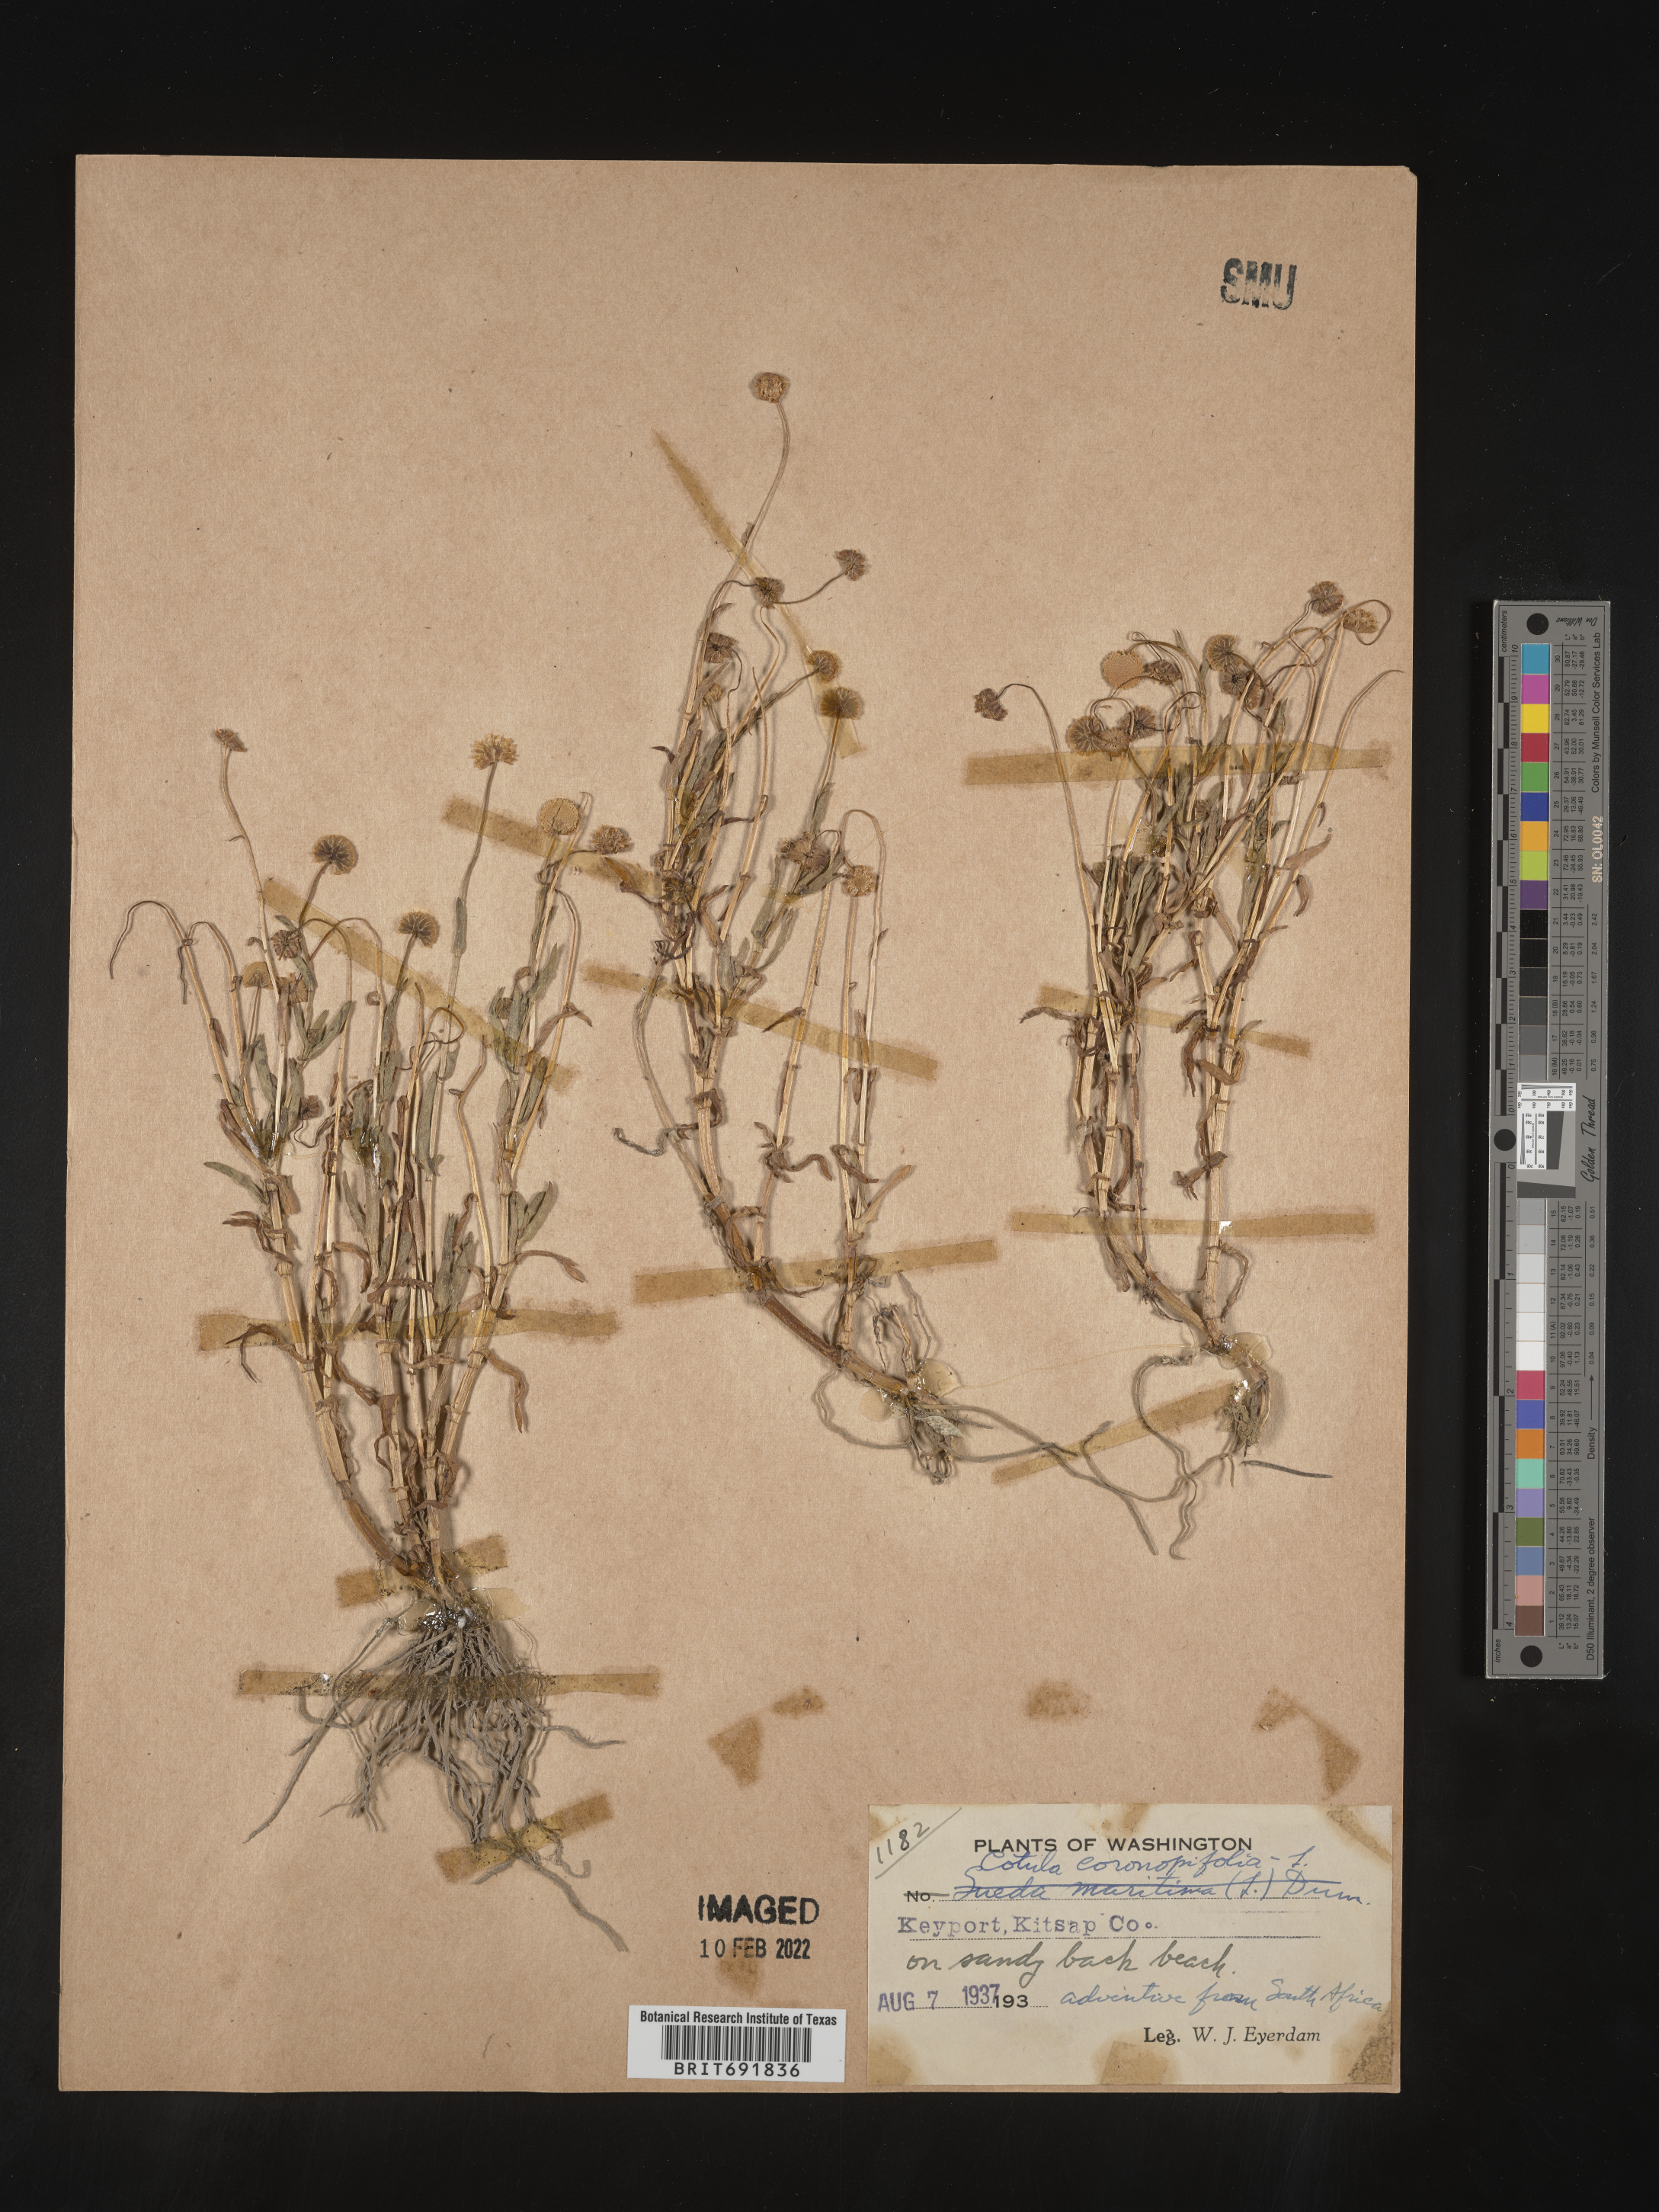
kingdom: Plantae
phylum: Tracheophyta
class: Magnoliopsida
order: Asterales
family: Asteraceae
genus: Cotula
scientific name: Cotula
